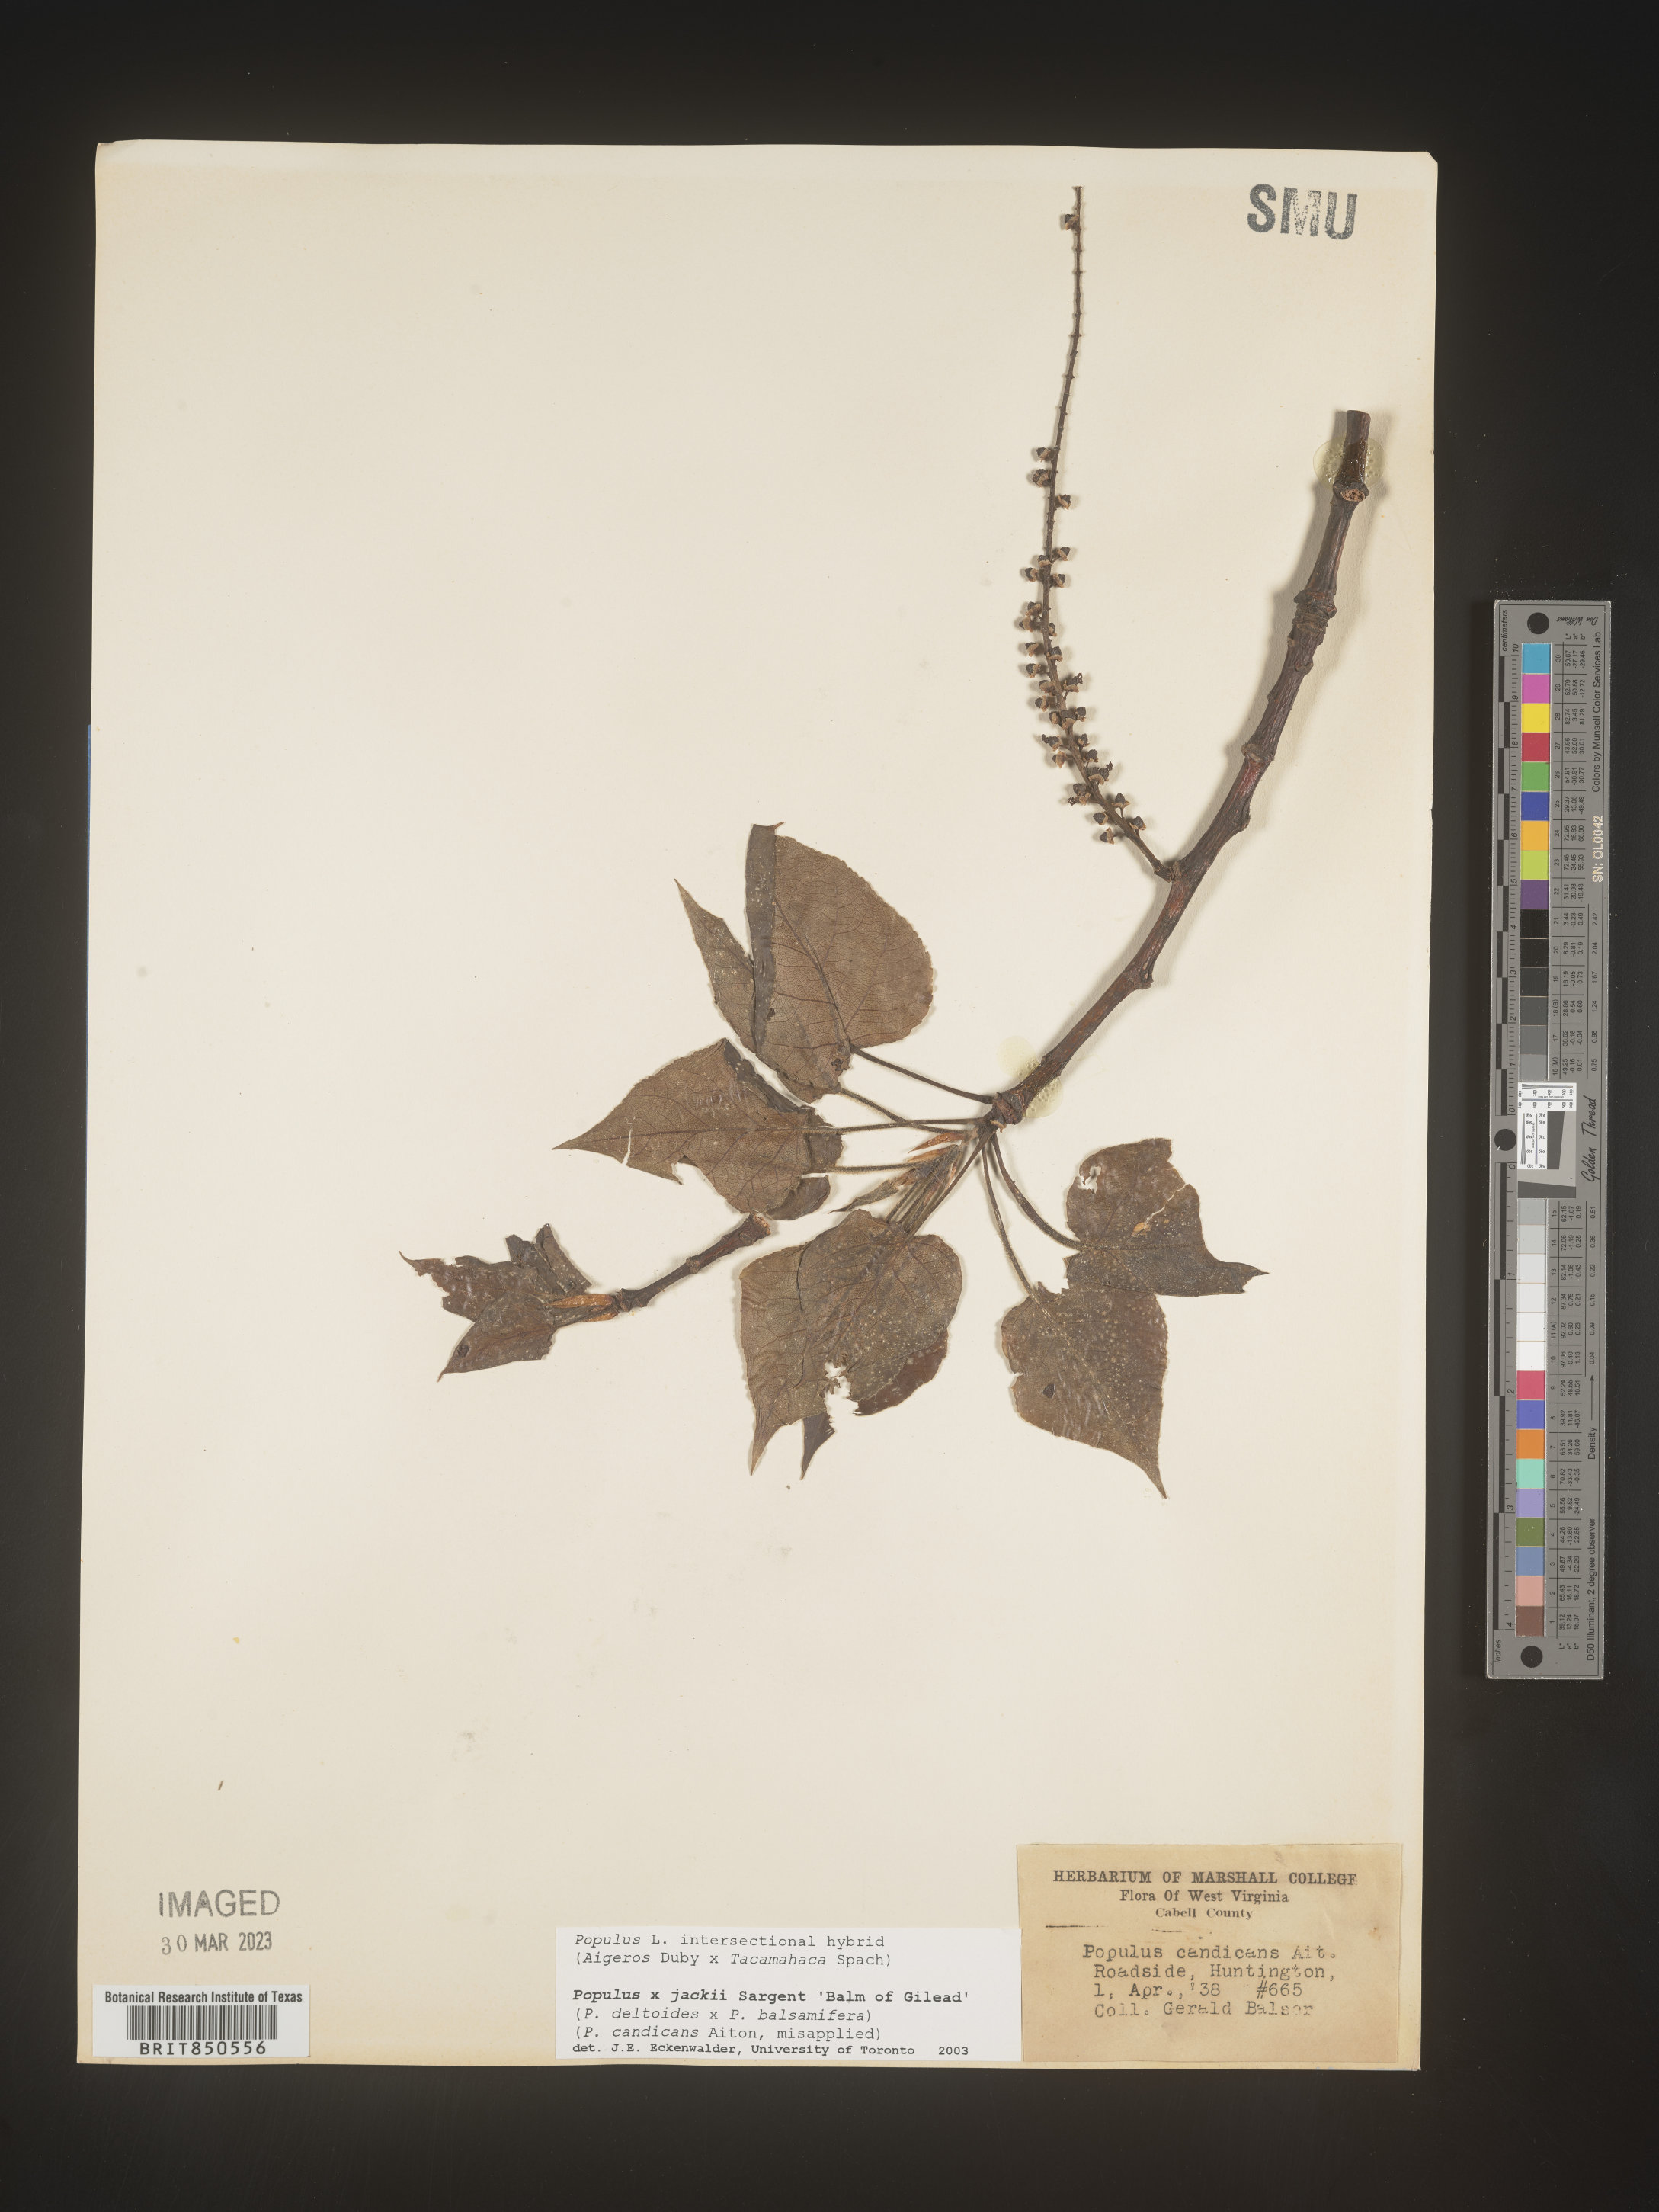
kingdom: Plantae
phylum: Tracheophyta
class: Magnoliopsida
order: Malpighiales
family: Salicaceae
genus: Populus
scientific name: Populus
